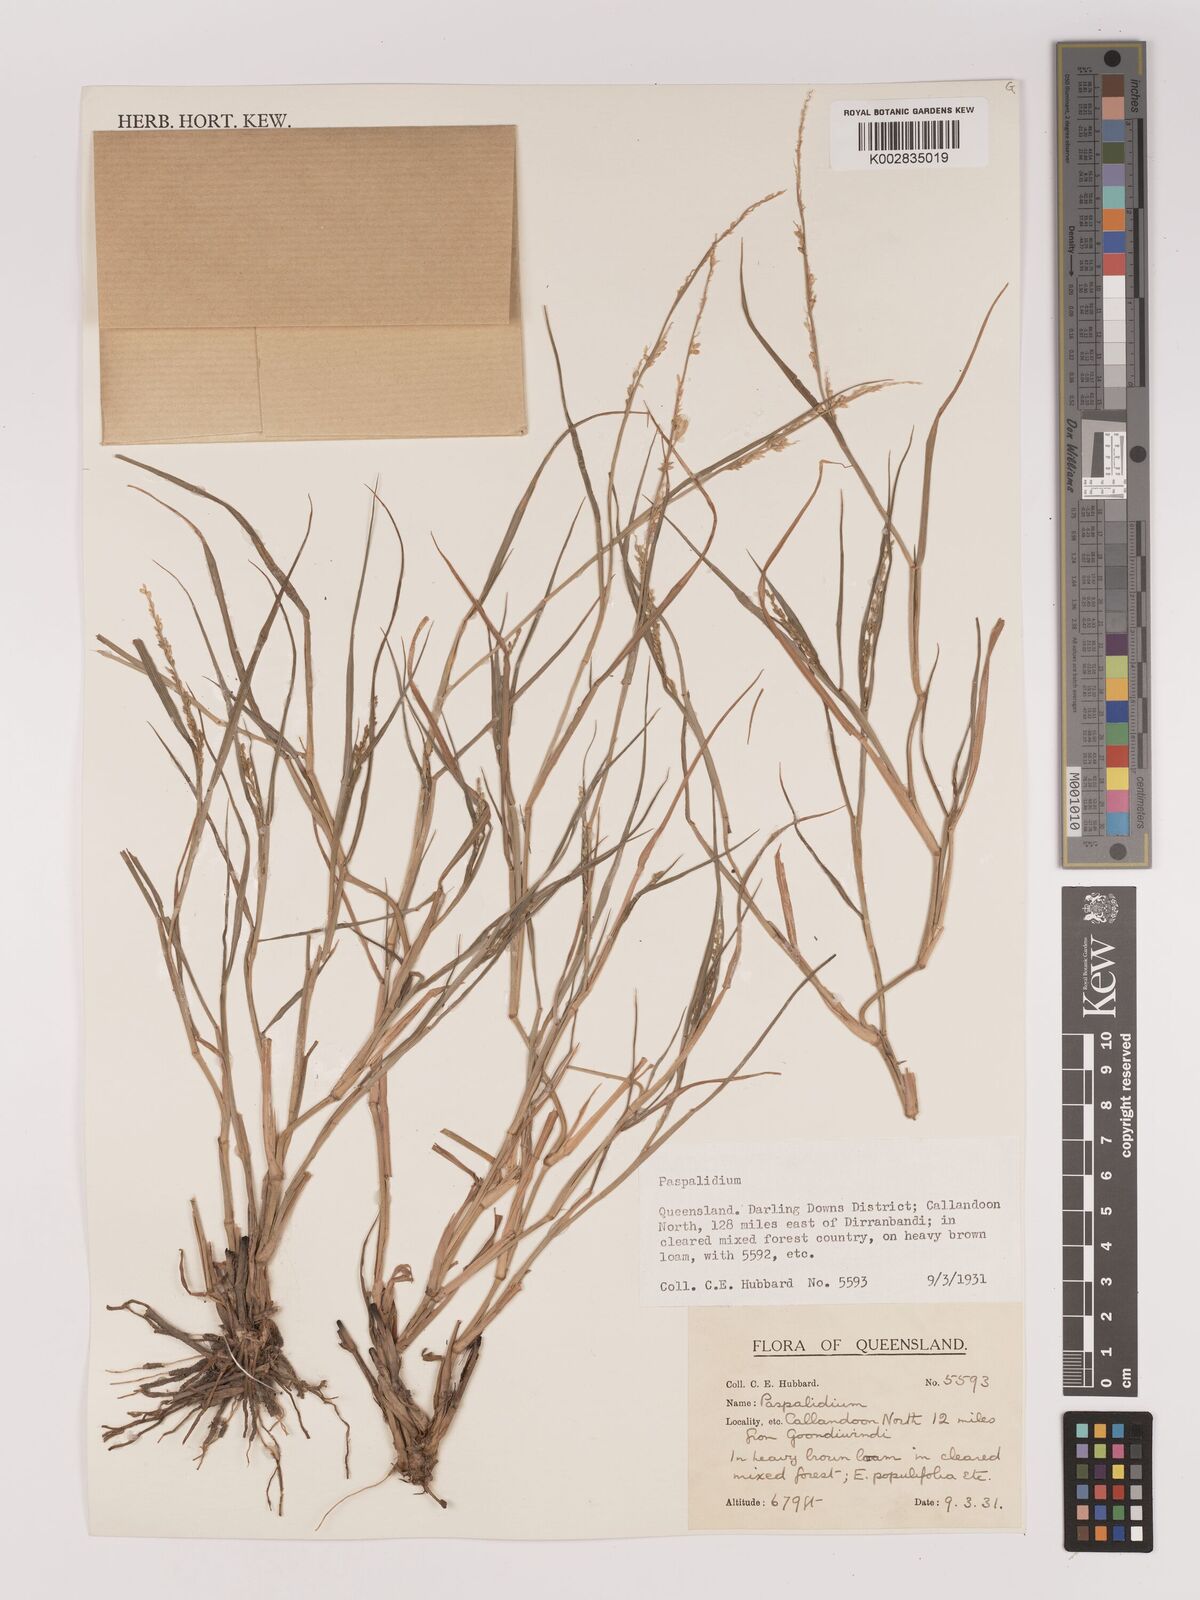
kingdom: Plantae
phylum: Tracheophyta
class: Liliopsida
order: Poales
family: Poaceae
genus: Setaria
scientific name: Setaria
